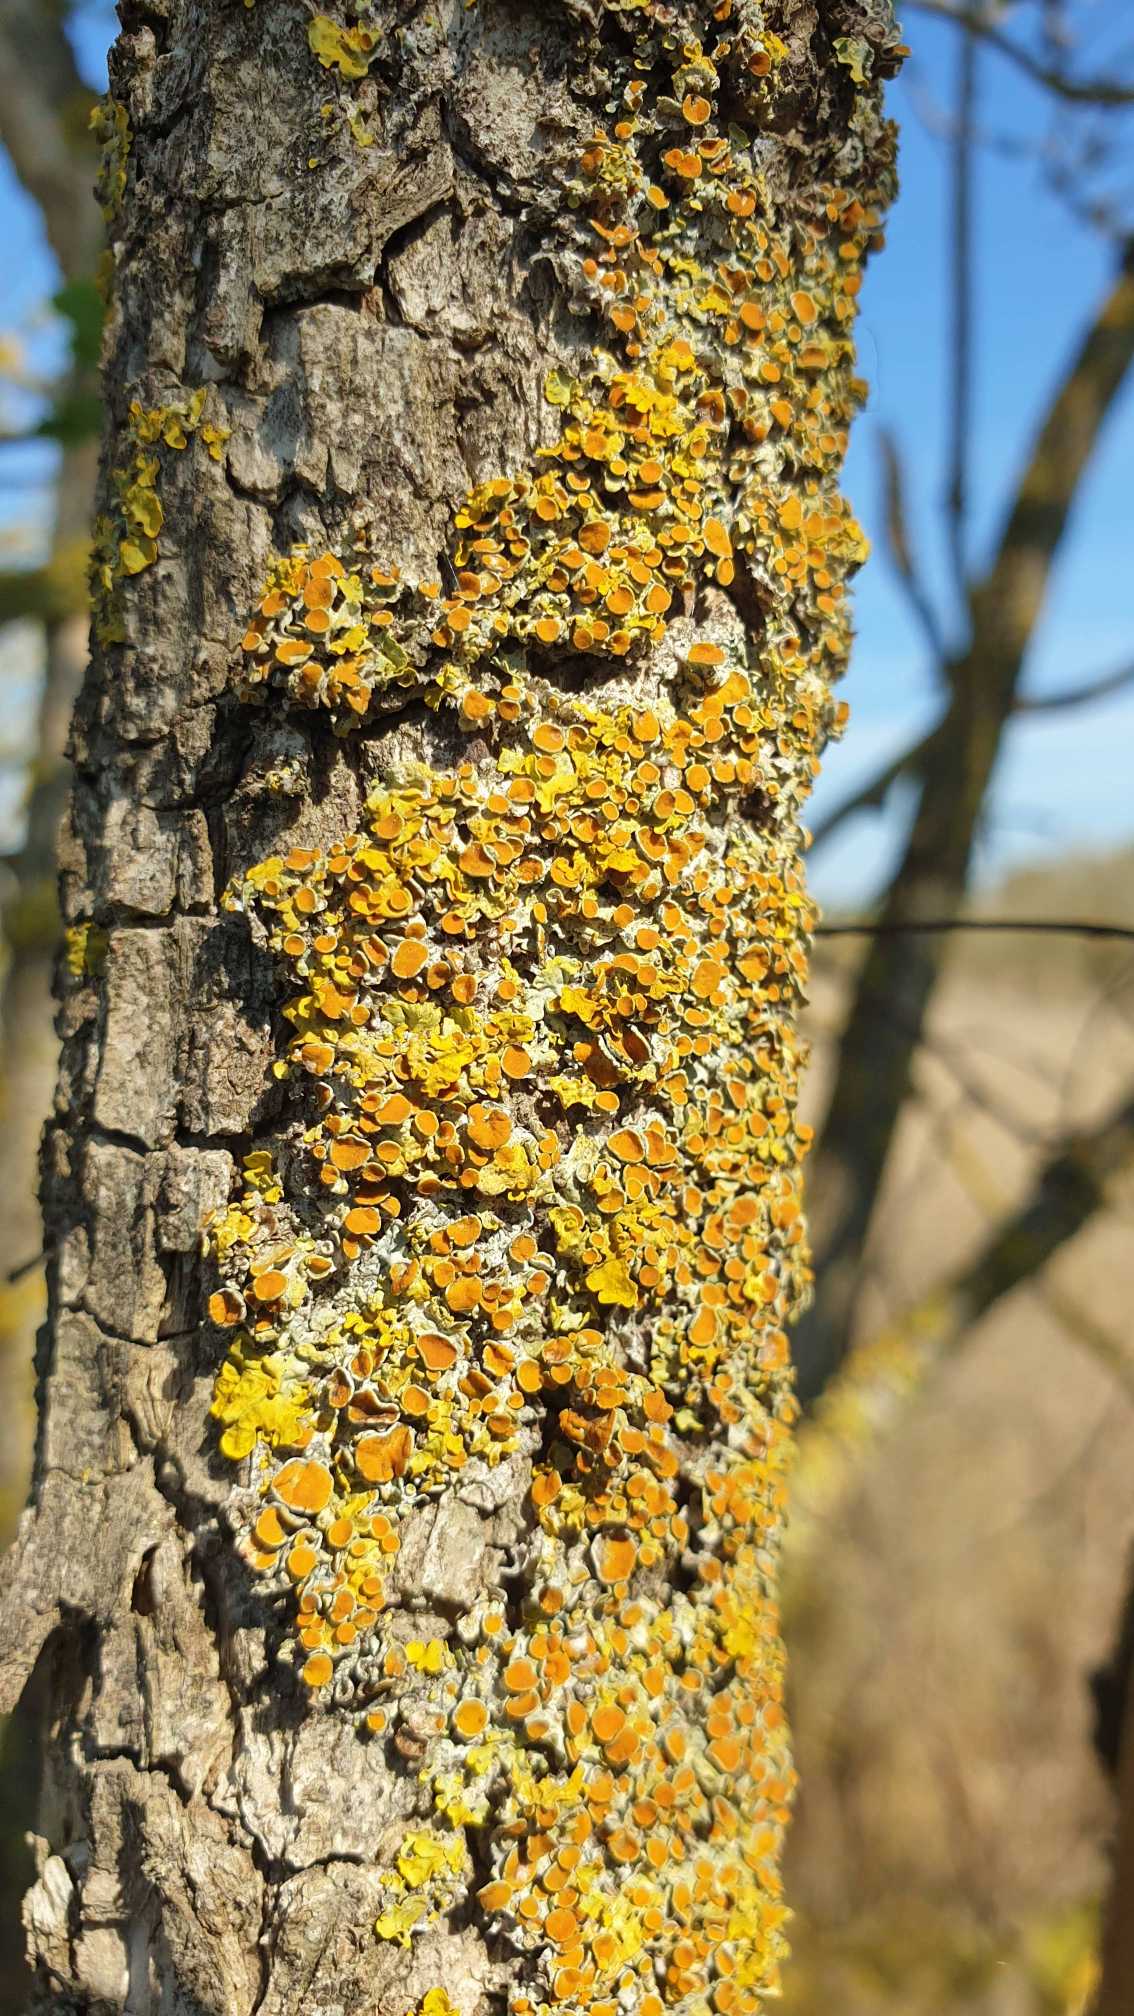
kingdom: Fungi
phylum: Ascomycota
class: Lecanoromycetes
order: Teloschistales
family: Teloschistaceae
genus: Xanthoria
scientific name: Xanthoria parietina
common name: Almindelig væggelav
